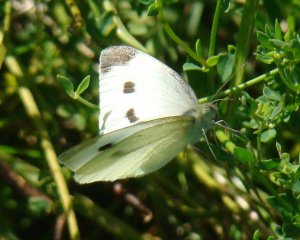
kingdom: Animalia
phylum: Arthropoda
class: Insecta
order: Lepidoptera
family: Pieridae
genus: Pieris
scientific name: Pieris rapae
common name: Cabbage White
